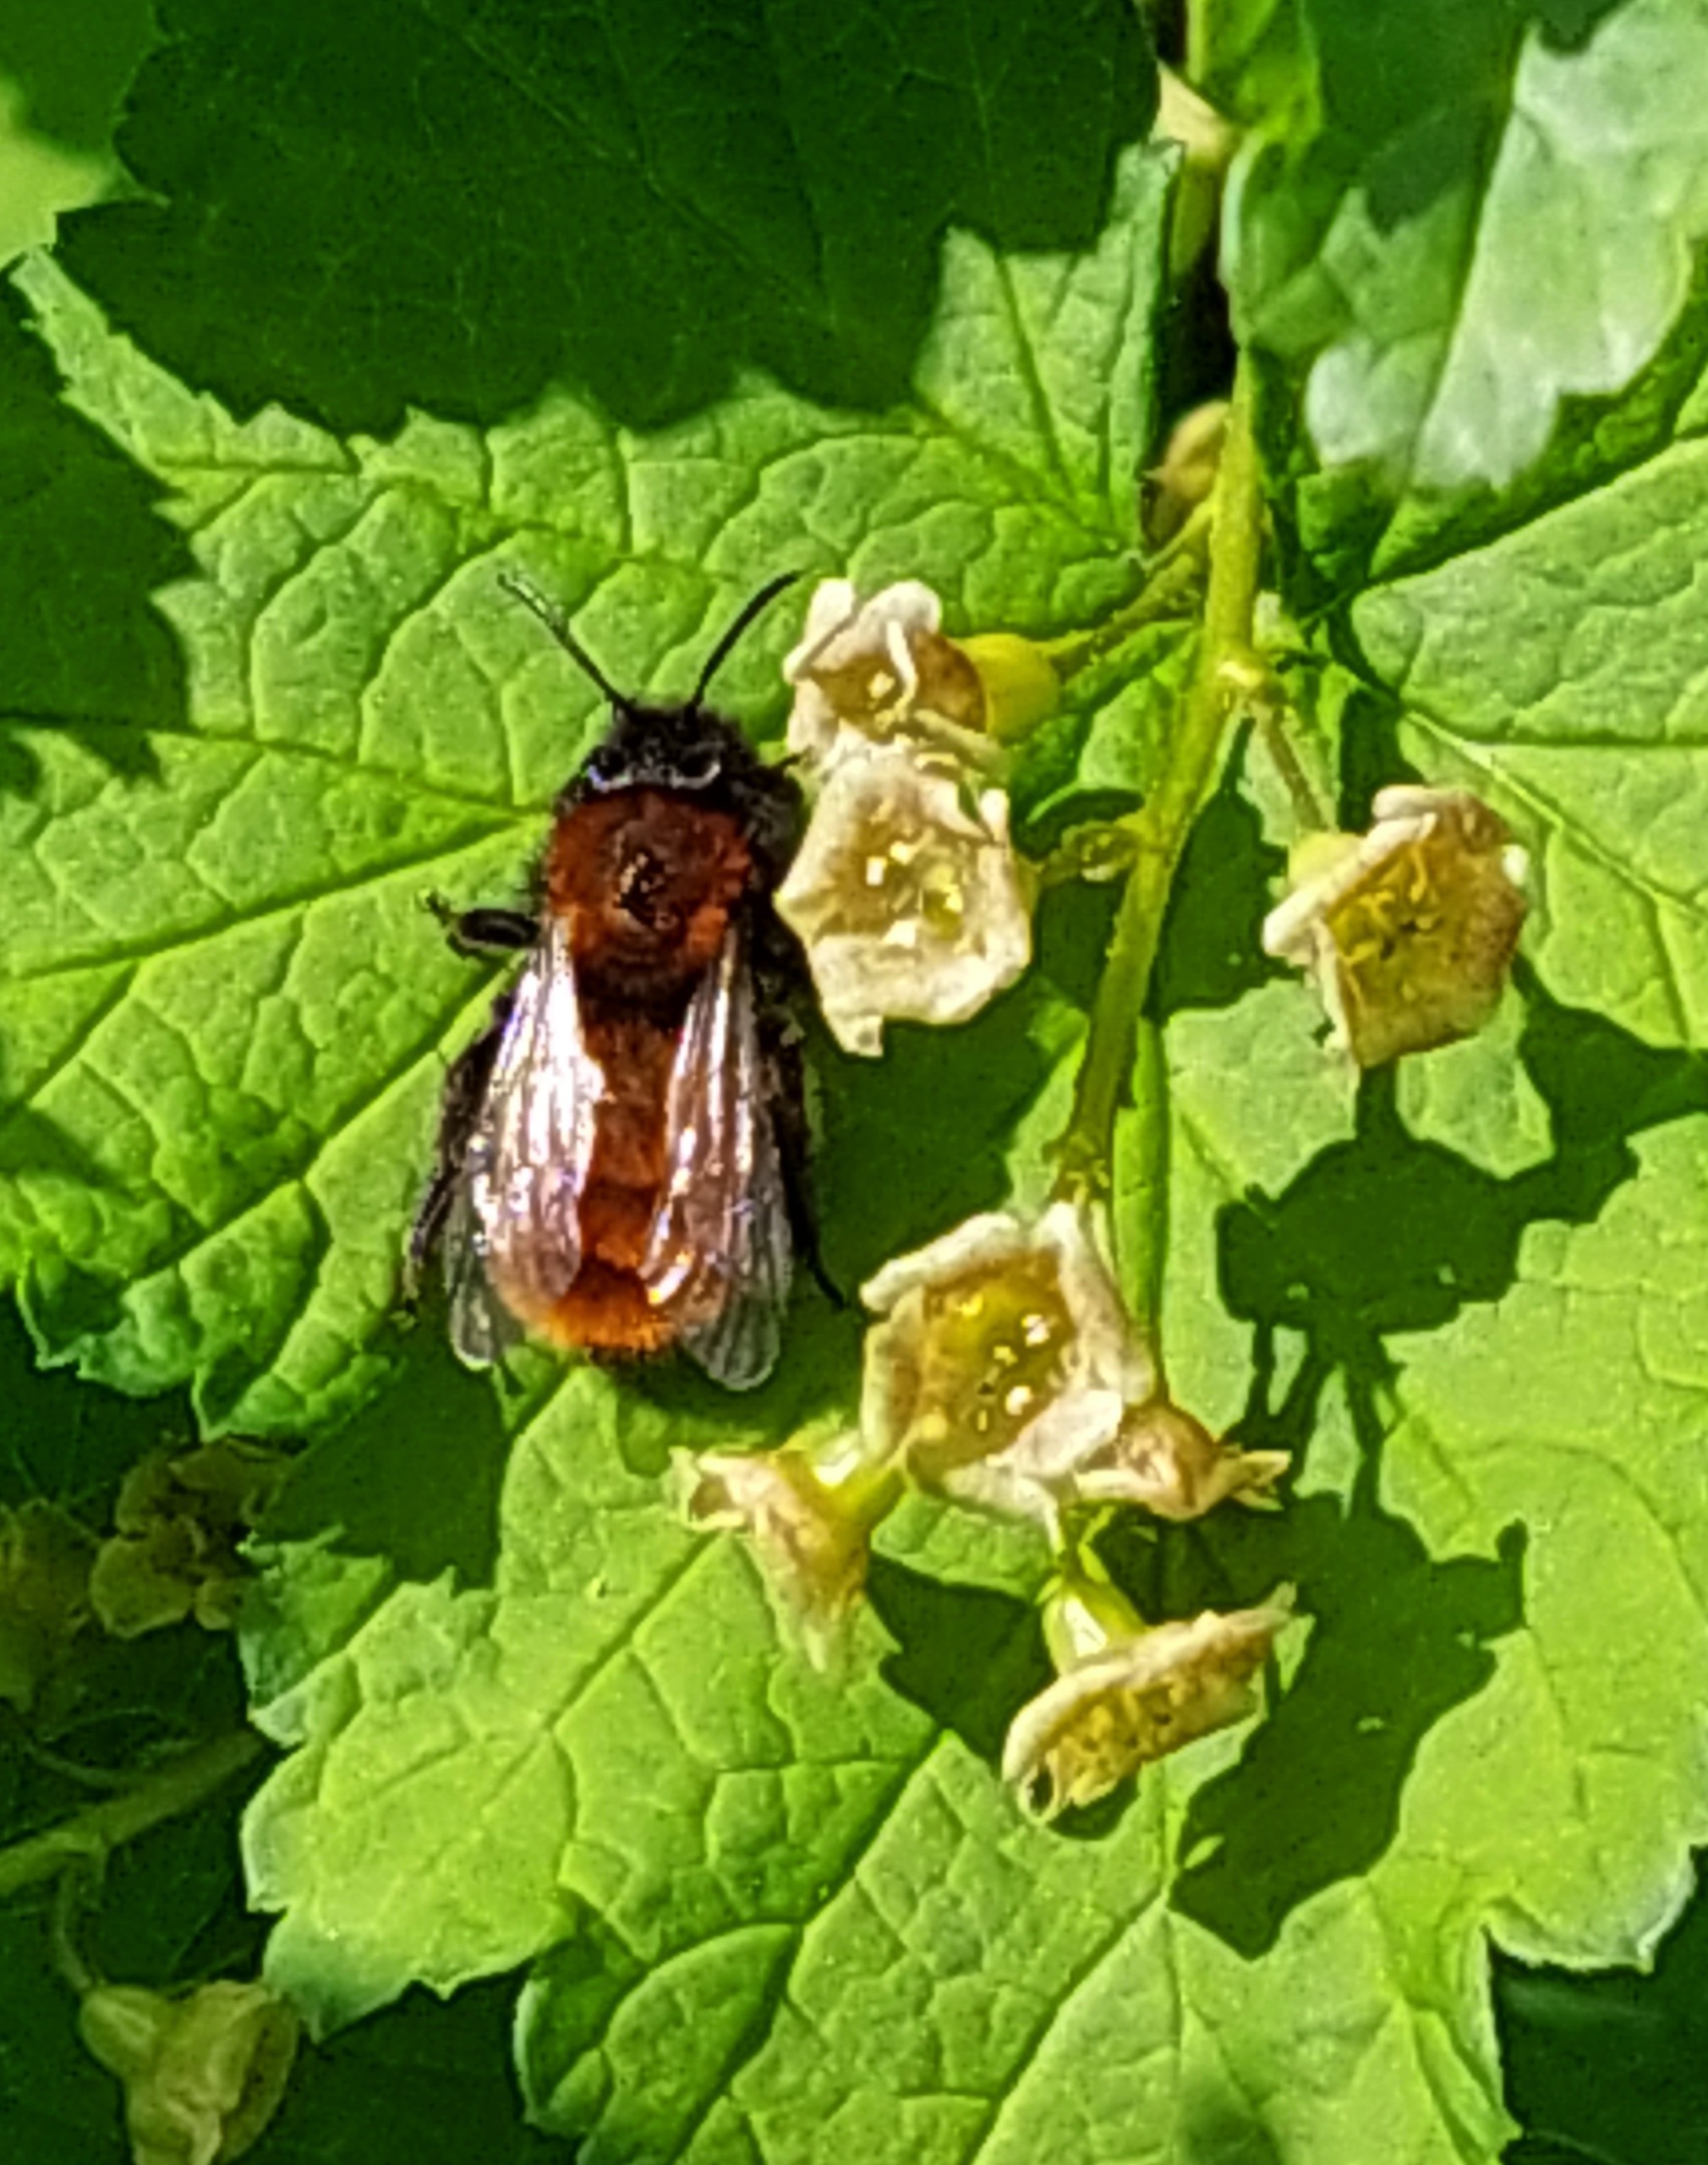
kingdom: Animalia
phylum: Arthropoda
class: Insecta
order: Hymenoptera
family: Andrenidae
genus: Andrena
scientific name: Andrena fulva
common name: Rødpelset jordbi
